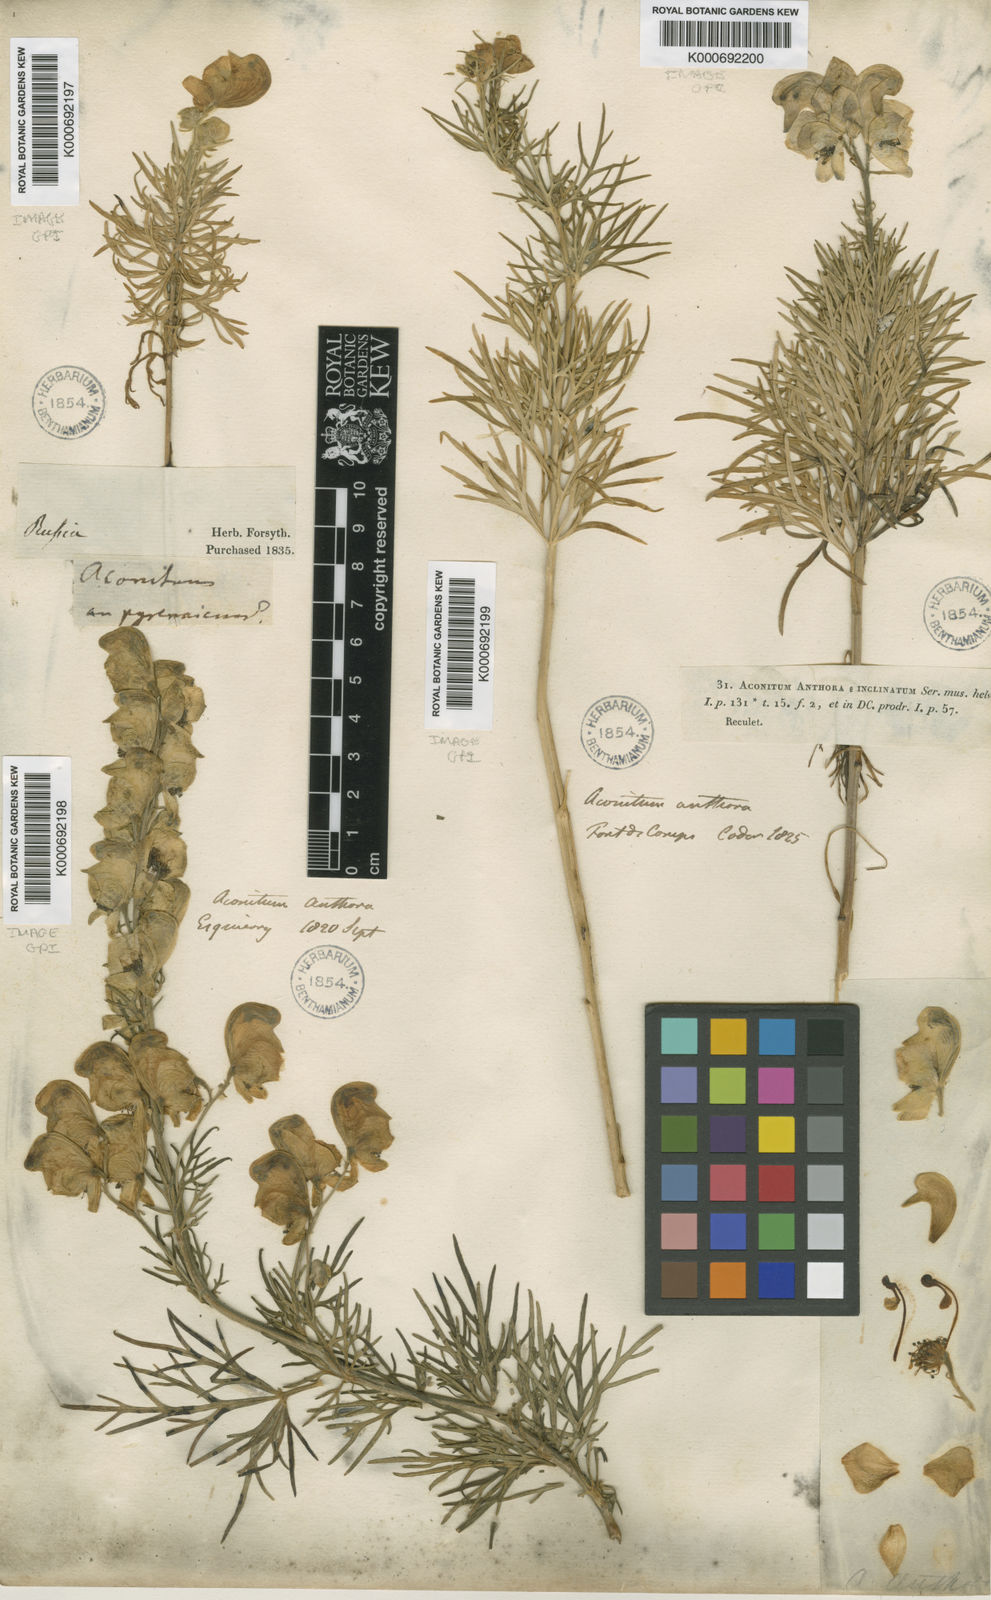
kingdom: Plantae
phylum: Tracheophyta
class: Magnoliopsida
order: Ranunculales
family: Ranunculaceae
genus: Aconitum
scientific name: Aconitum anthora
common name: Yellow monkshood
